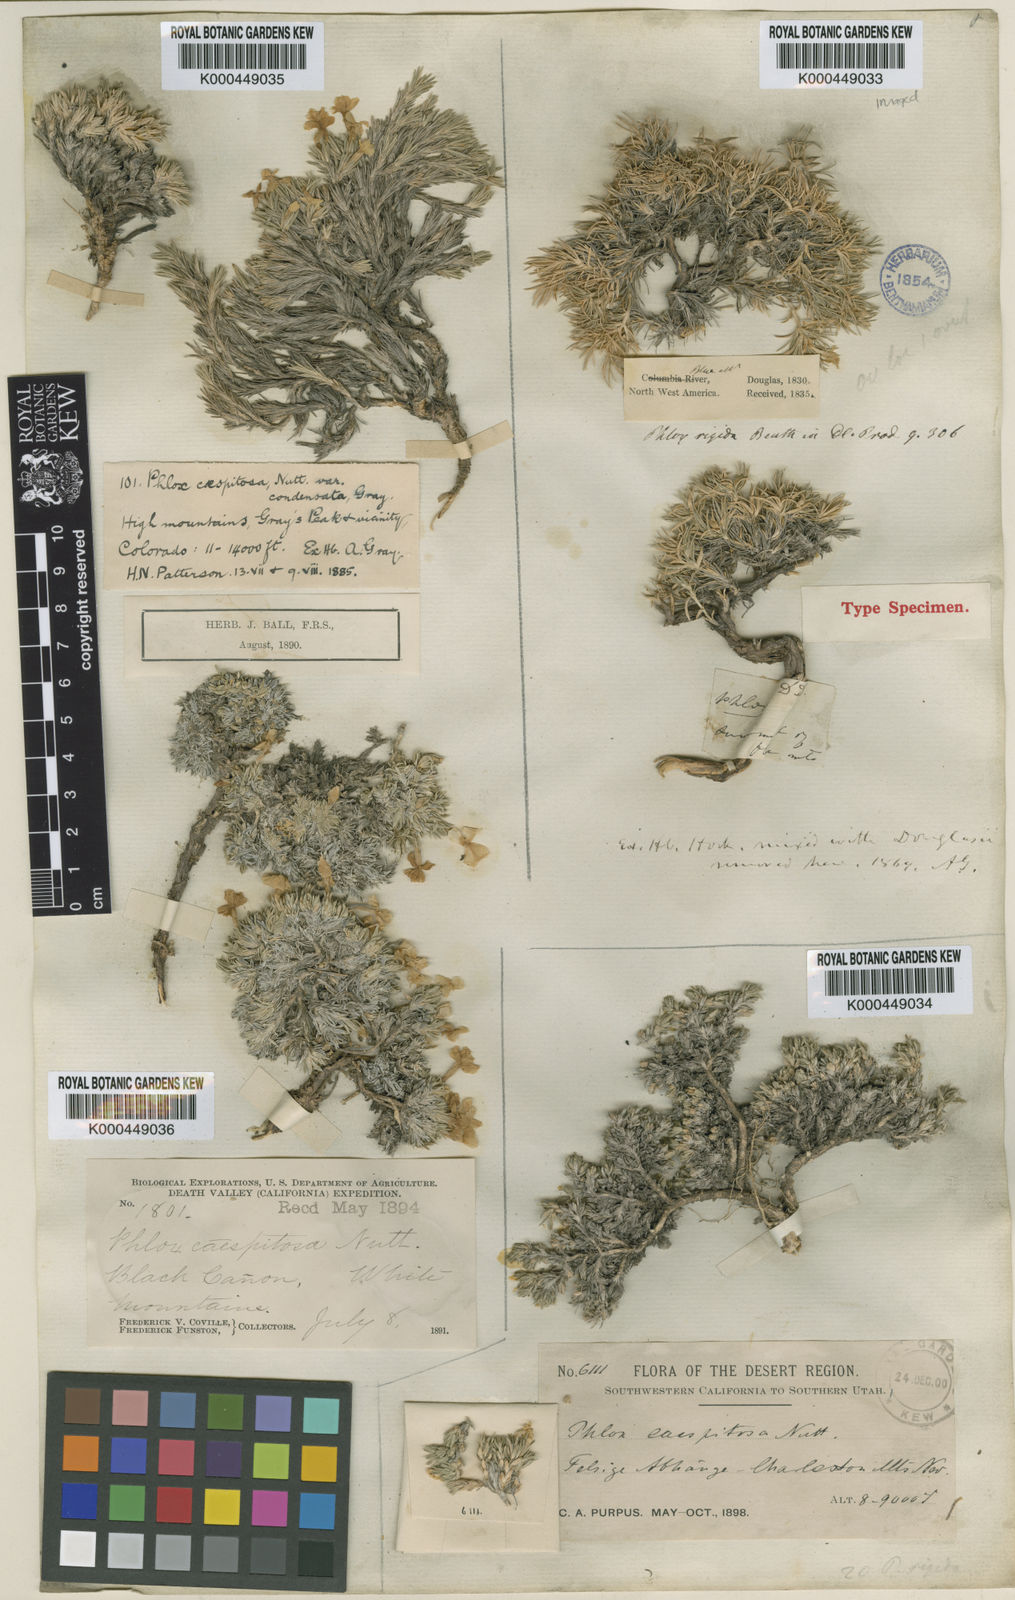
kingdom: Plantae
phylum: Tracheophyta
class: Magnoliopsida
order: Ericales
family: Polemoniaceae
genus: Phlox
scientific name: Phlox
